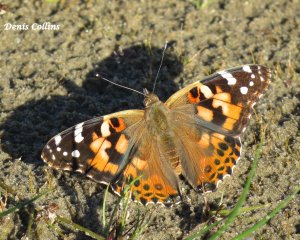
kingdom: Animalia
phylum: Arthropoda
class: Insecta
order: Lepidoptera
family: Nymphalidae
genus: Vanessa
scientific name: Vanessa cardui
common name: Painted Lady
